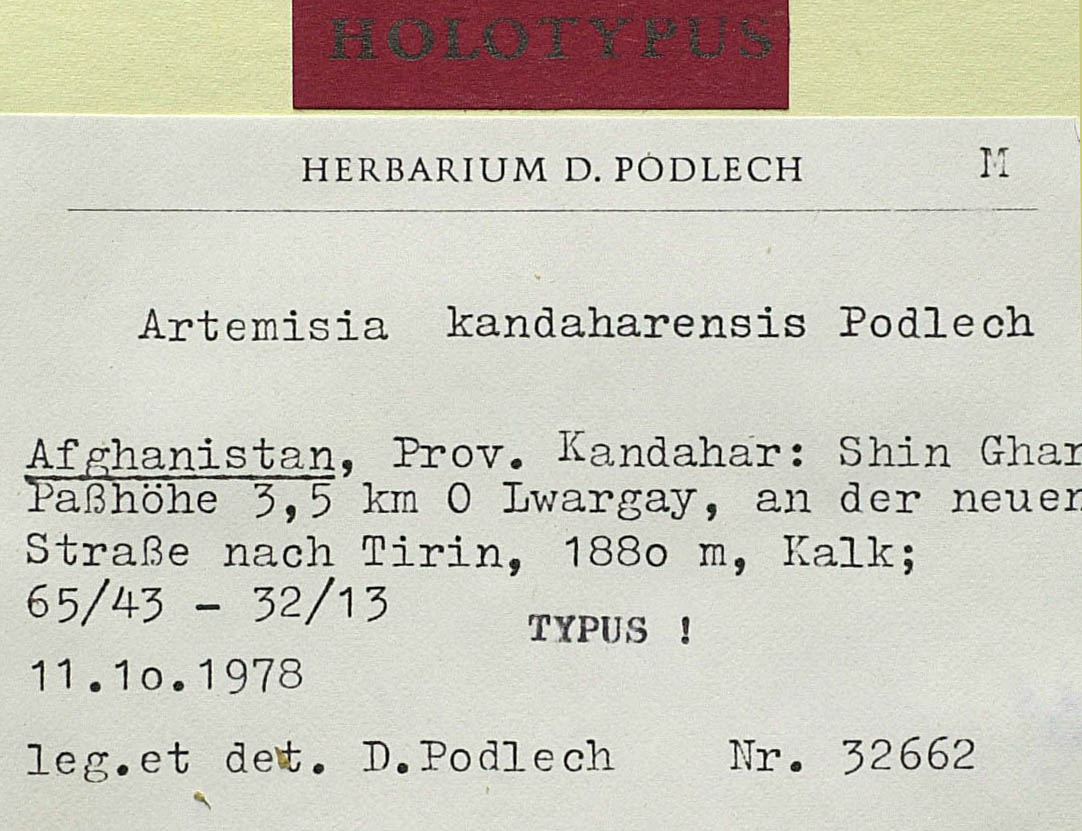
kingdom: Plantae
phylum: Tracheophyta
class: Magnoliopsida
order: Asterales
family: Asteraceae
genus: Artemisia
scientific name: Artemisia kandaharensis
